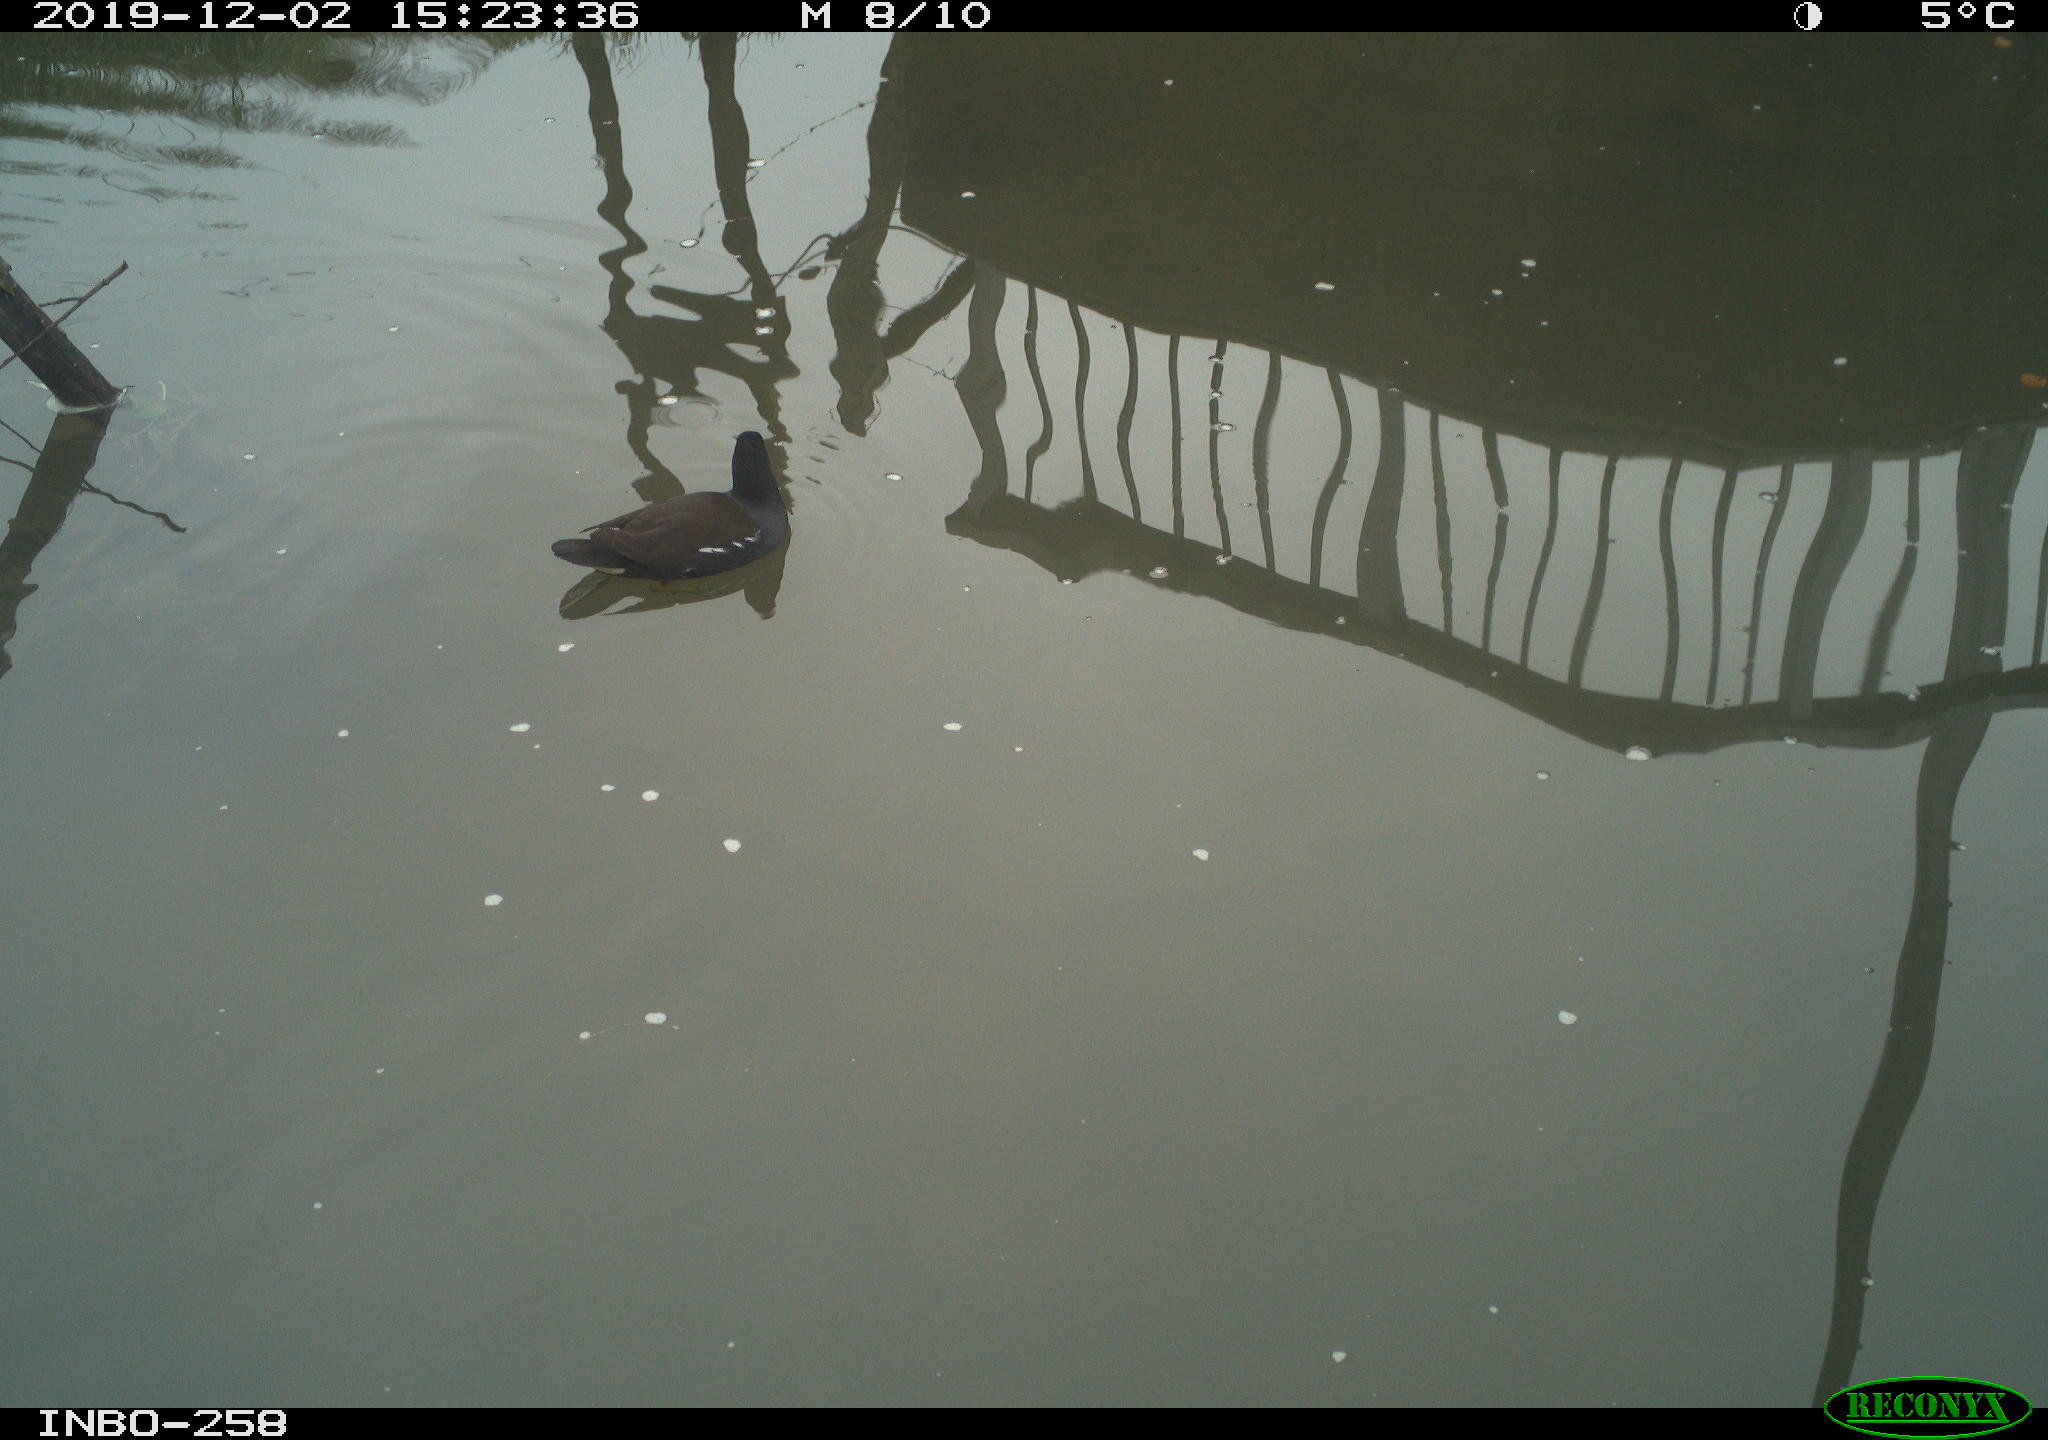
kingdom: Animalia
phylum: Chordata
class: Aves
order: Gruiformes
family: Rallidae
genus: Gallinula
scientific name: Gallinula chloropus
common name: Common moorhen
